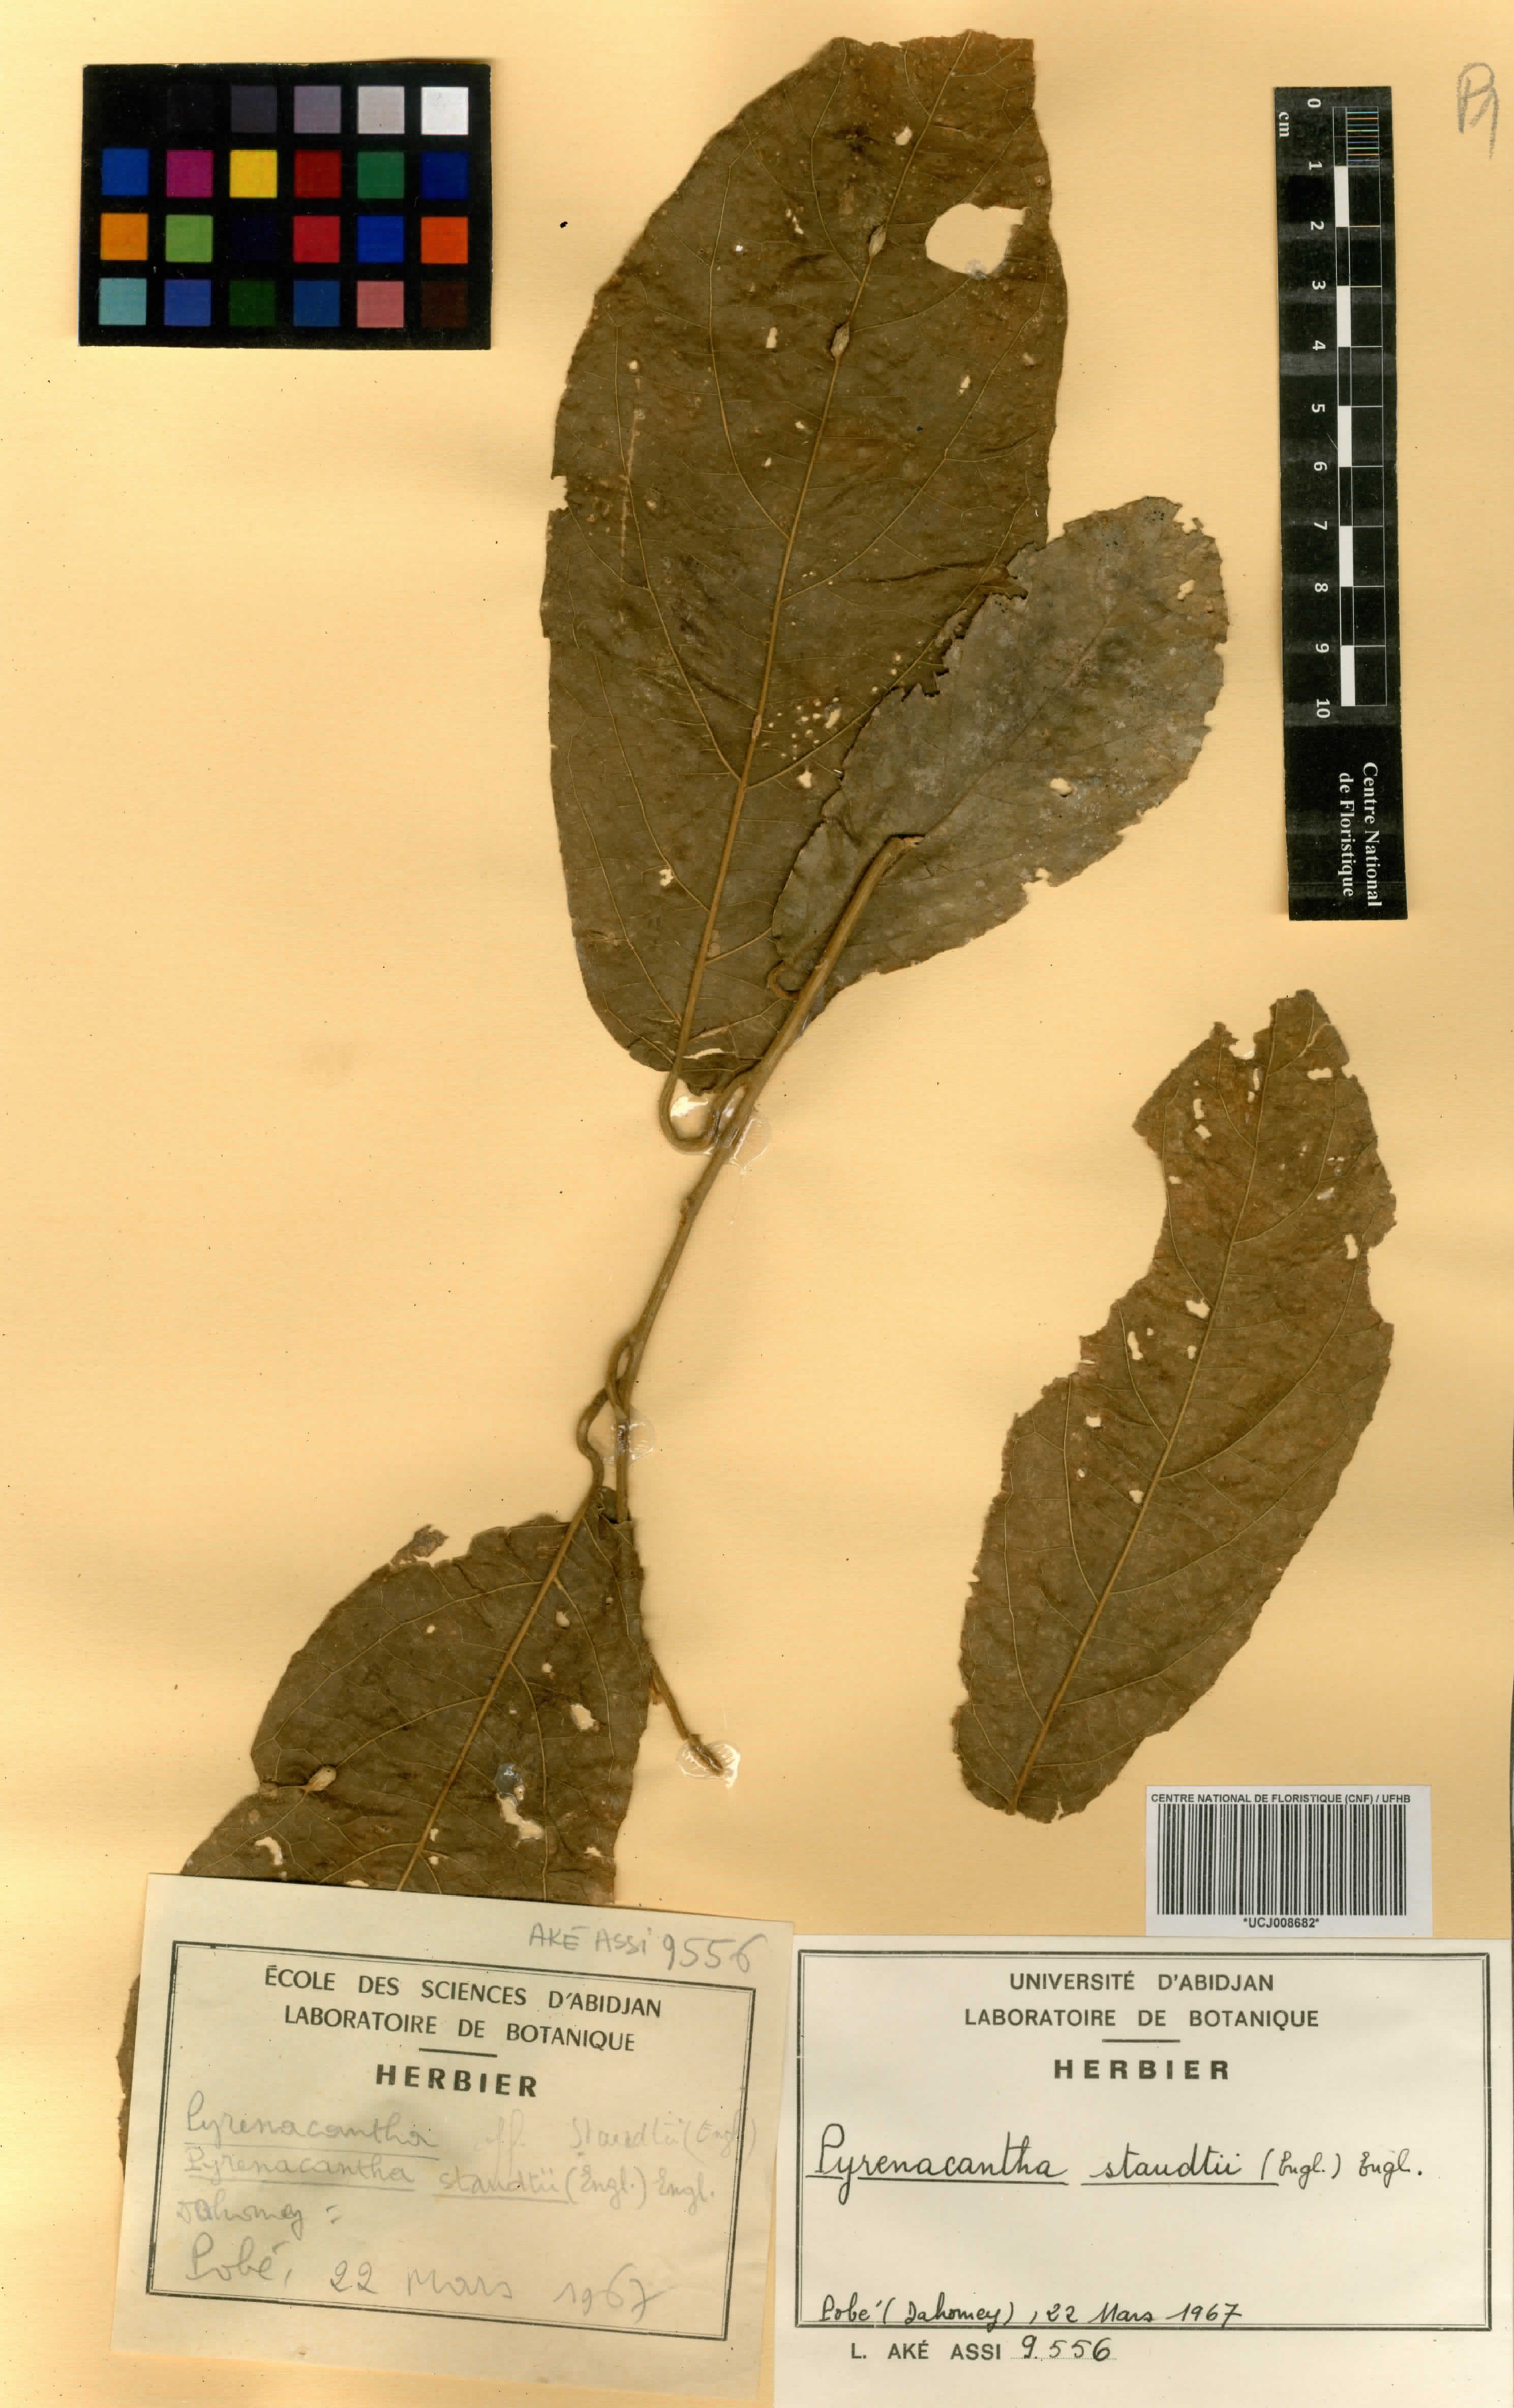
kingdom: Plantae
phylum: Tracheophyta
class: Magnoliopsida
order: Icacinales
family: Icacinaceae
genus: Pyrenacantha
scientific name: Pyrenacantha staudtii
